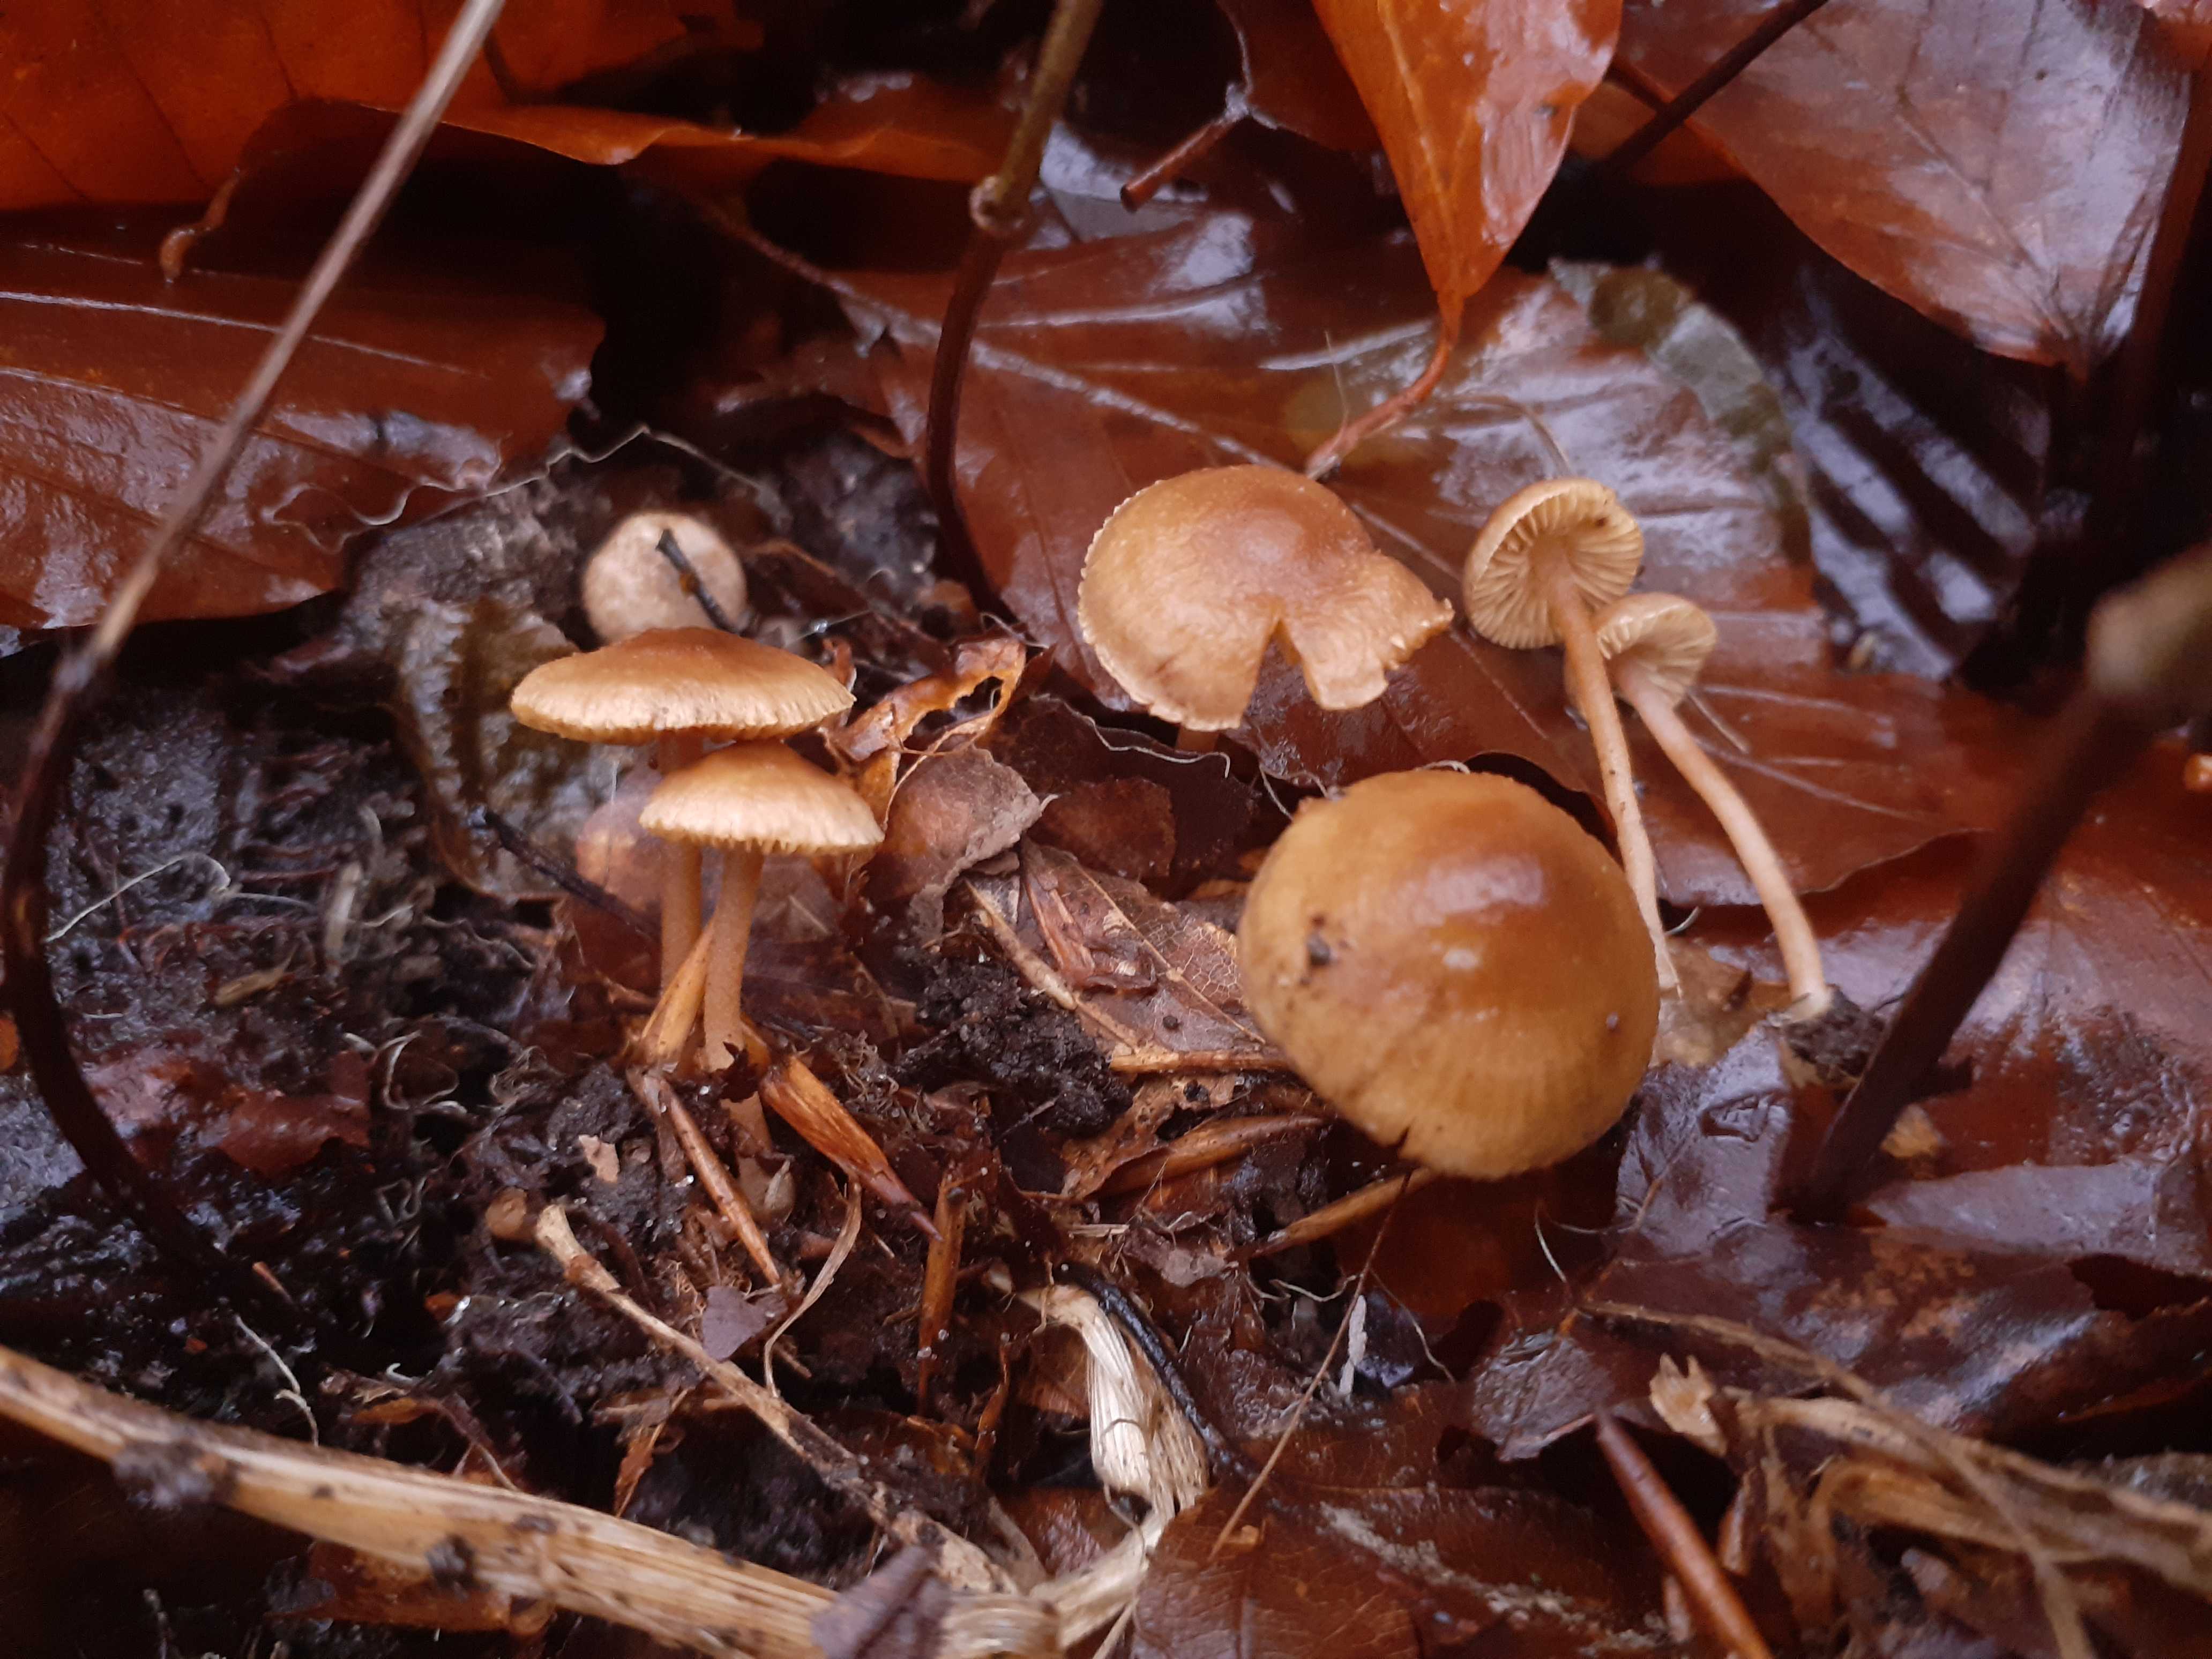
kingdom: Fungi
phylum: Basidiomycota
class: Agaricomycetes
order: Agaricales
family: Inocybaceae
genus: Inocybe
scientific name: Inocybe petiginosa
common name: liden trævlhat
